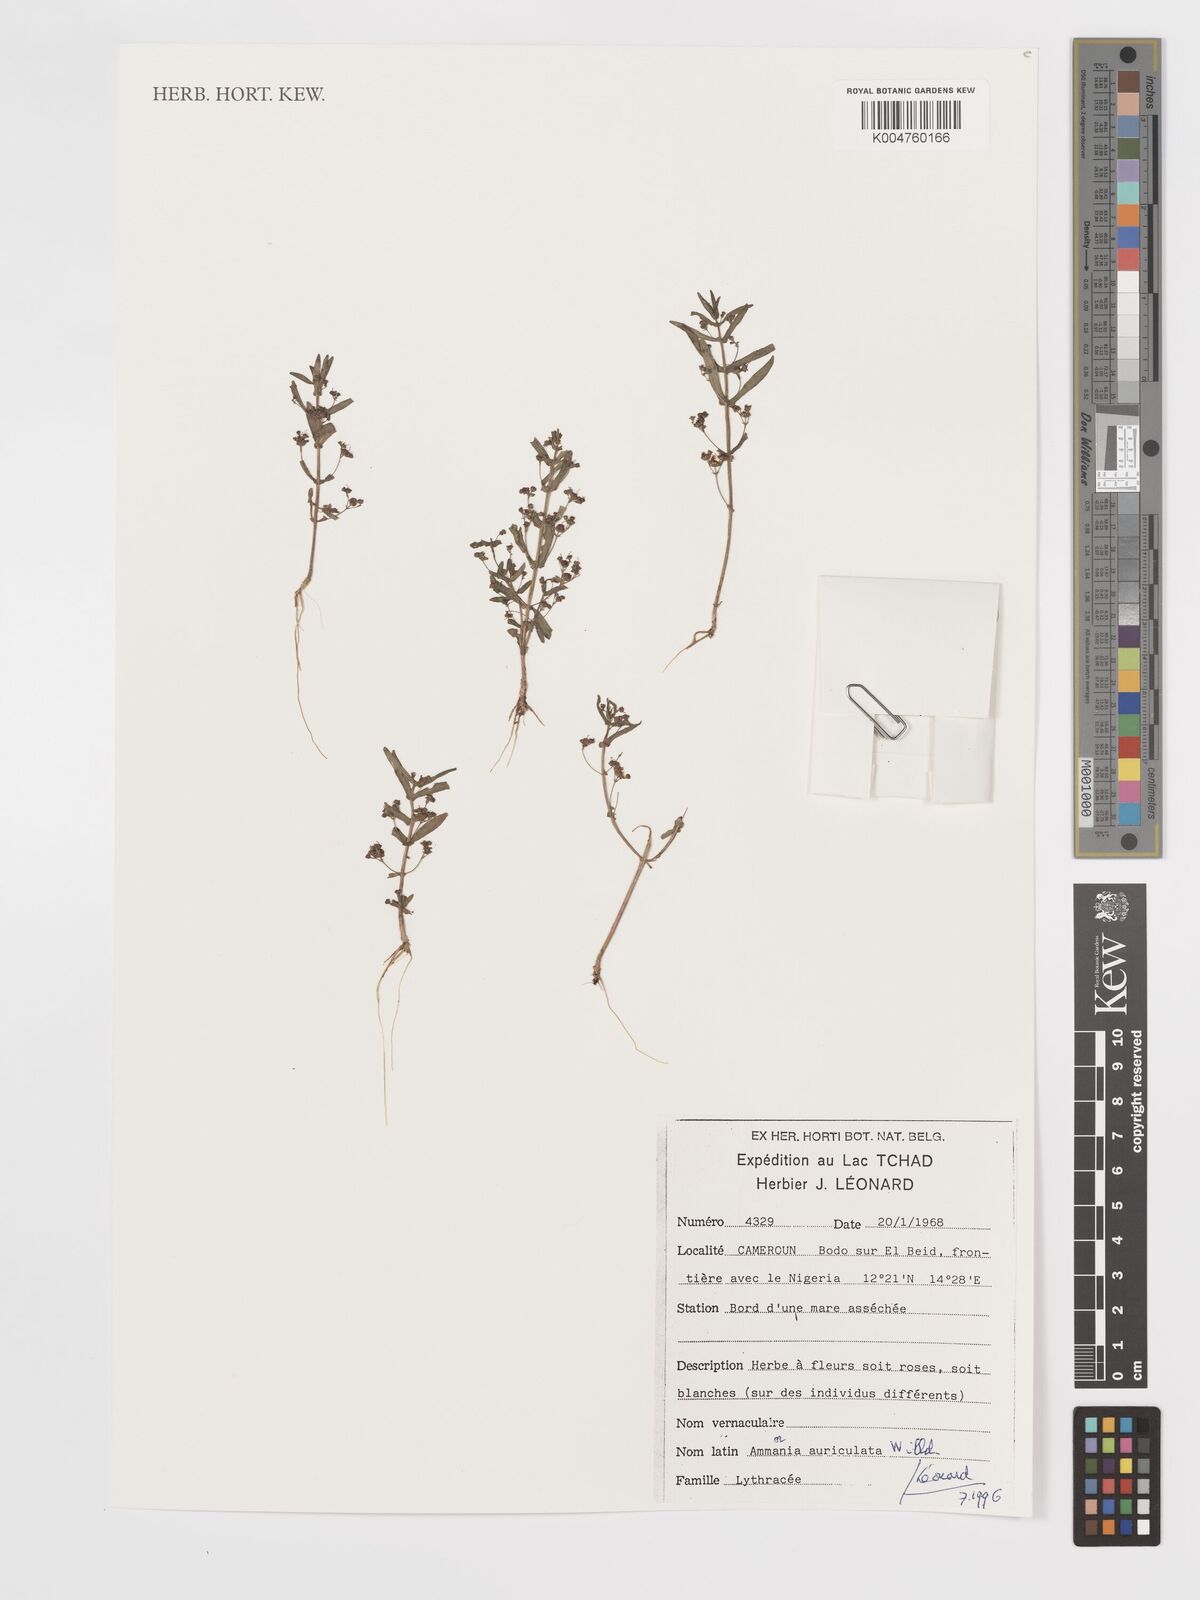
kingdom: Plantae
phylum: Tracheophyta
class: Magnoliopsida
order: Myrtales
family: Lythraceae
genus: Ammannia
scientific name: Ammannia auriculata
